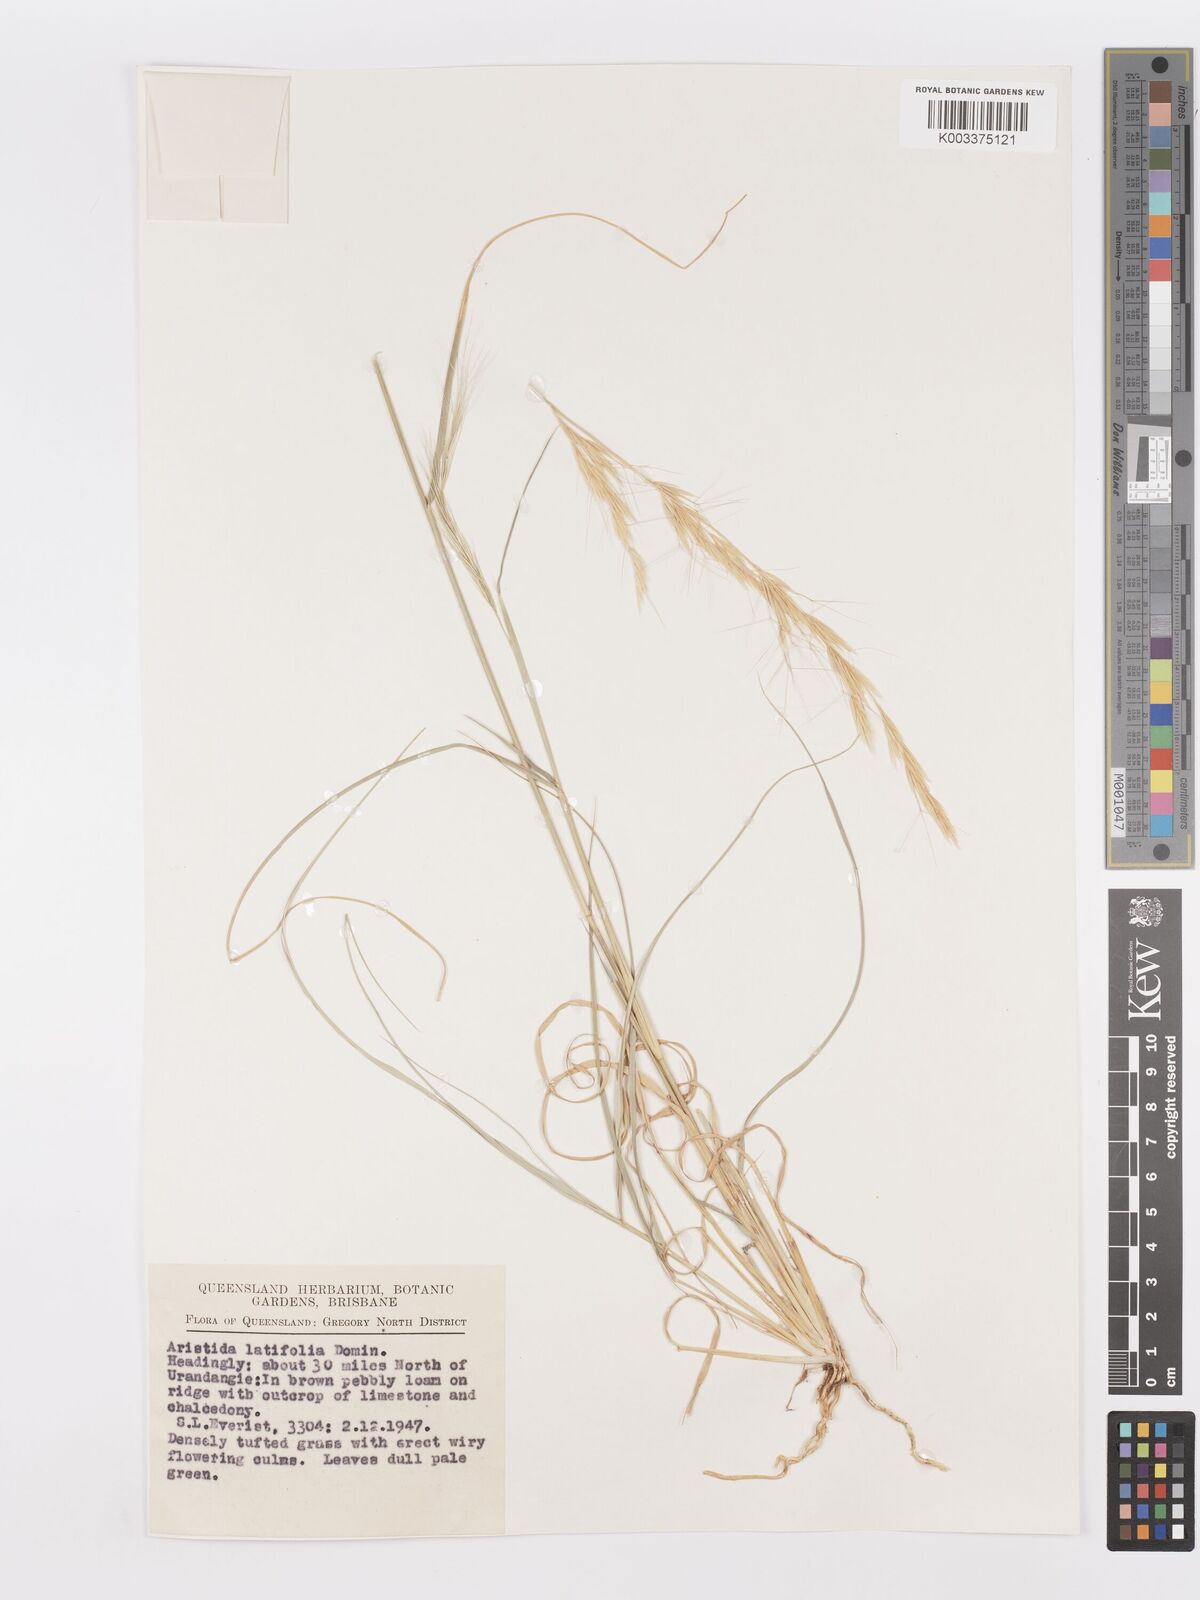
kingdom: Plantae
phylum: Tracheophyta
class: Liliopsida
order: Poales
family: Poaceae
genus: Aristida
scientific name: Aristida latifolia
